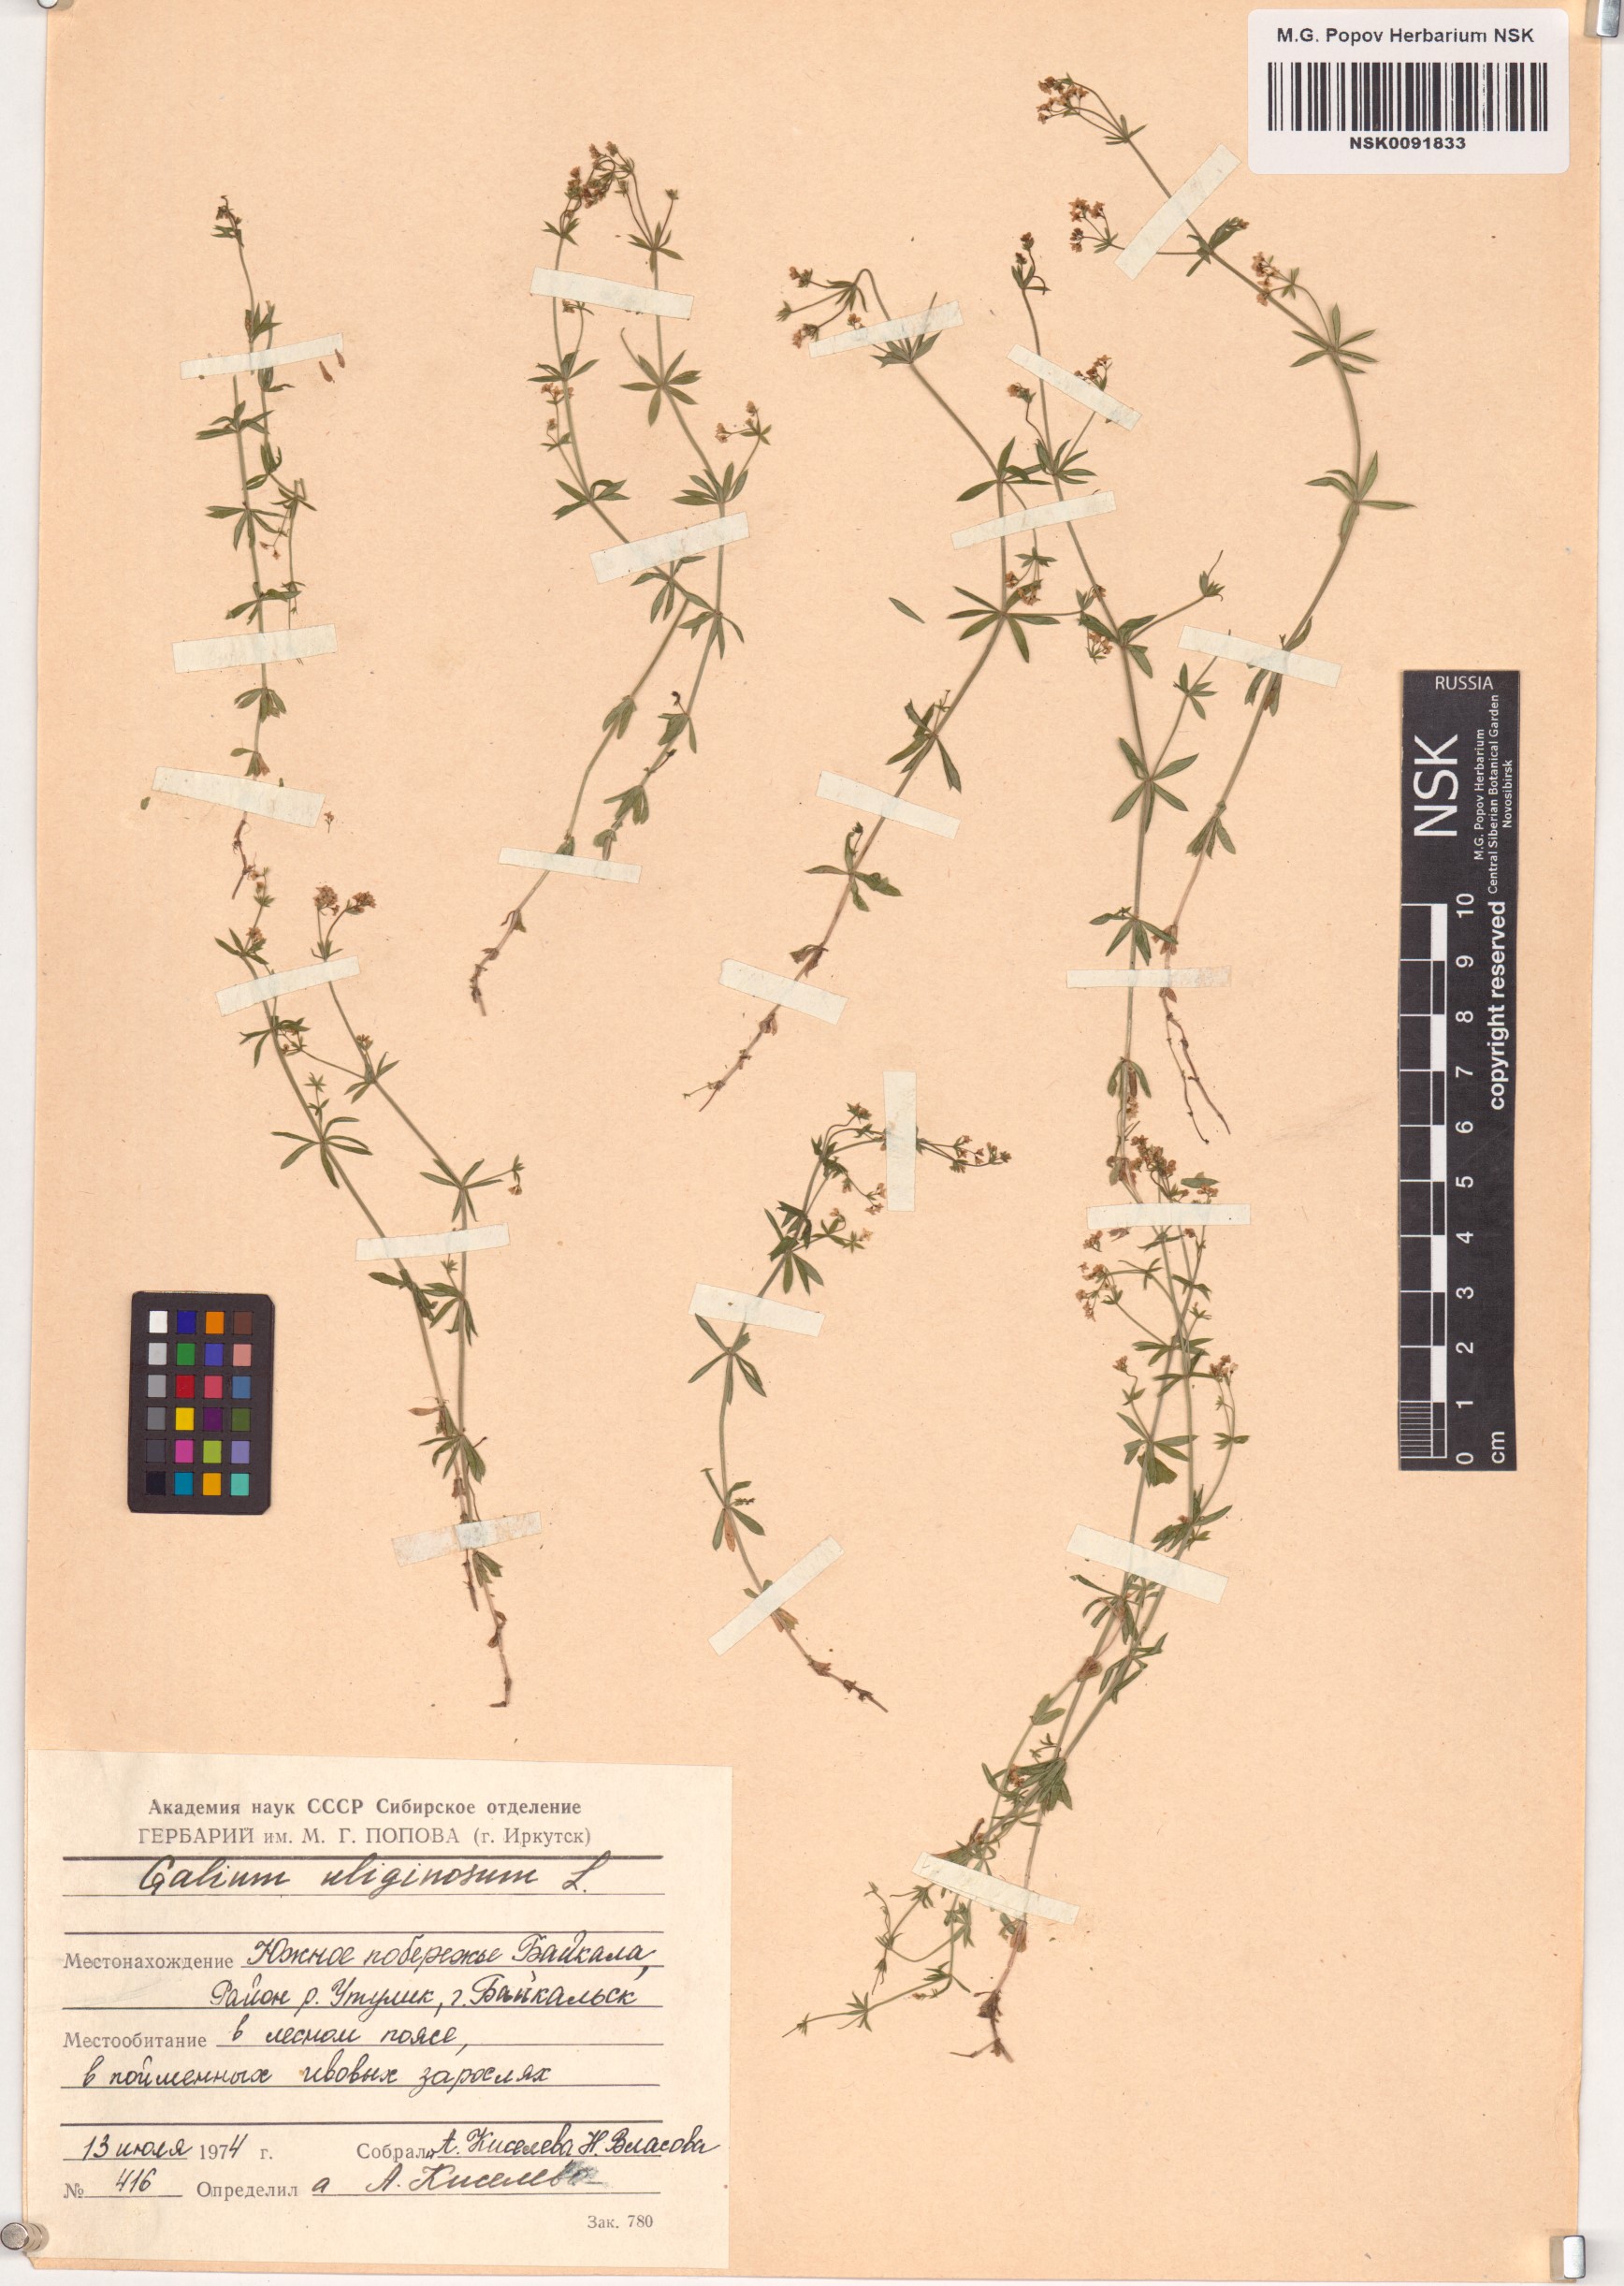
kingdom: Plantae
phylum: Tracheophyta
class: Magnoliopsida
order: Gentianales
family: Rubiaceae
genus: Galium
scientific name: Galium uliginosum
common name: Fen bedstraw
